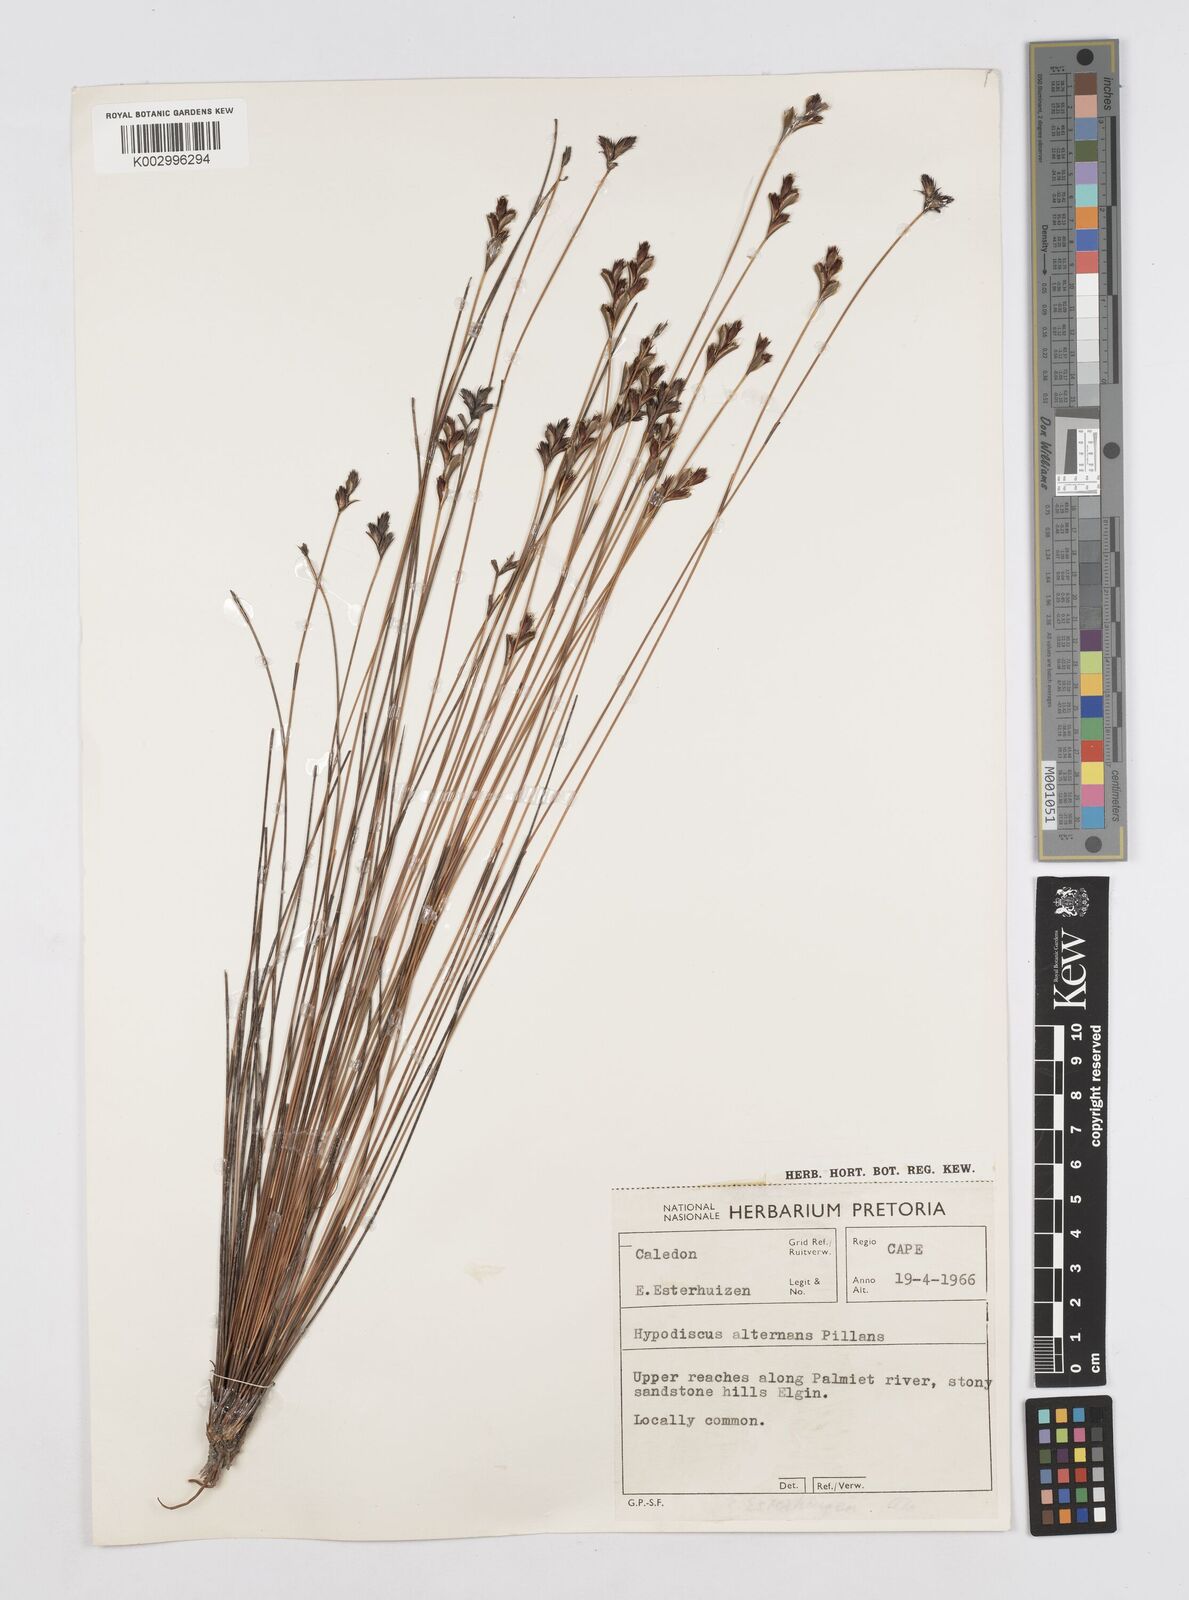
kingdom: Plantae
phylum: Tracheophyta
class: Liliopsida
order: Poales
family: Restionaceae
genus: Hypodiscus
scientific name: Hypodiscus alternans
